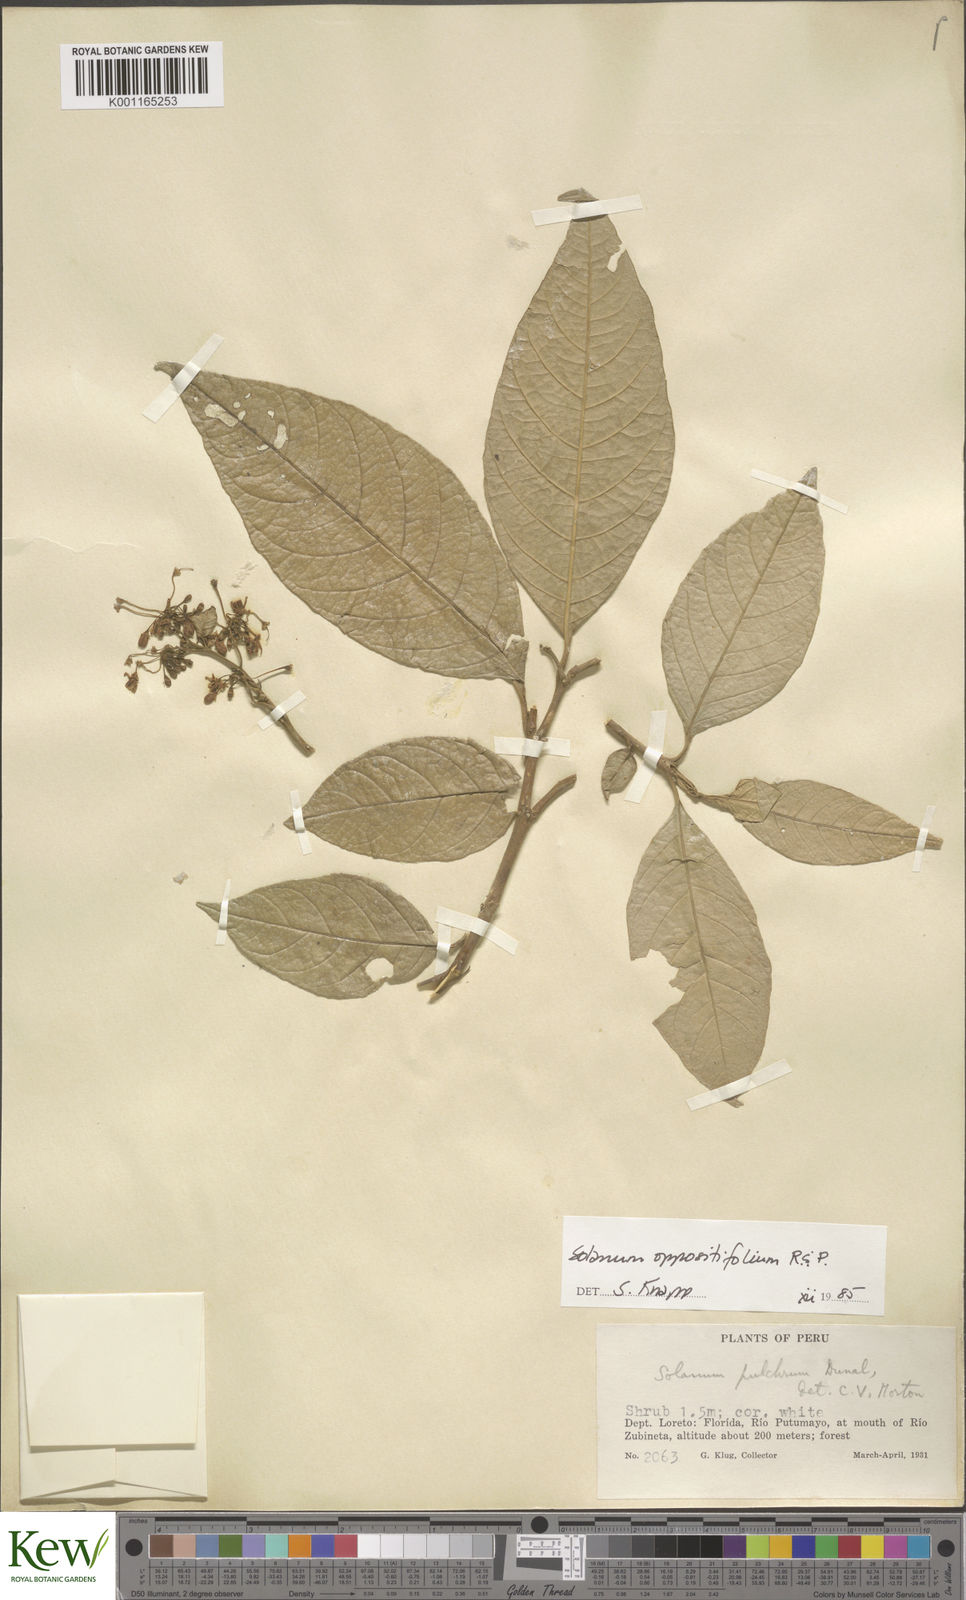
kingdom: Plantae
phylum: Tracheophyta
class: Magnoliopsida
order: Solanales
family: Solanaceae
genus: Solanum
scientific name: Solanum oppositifolium
